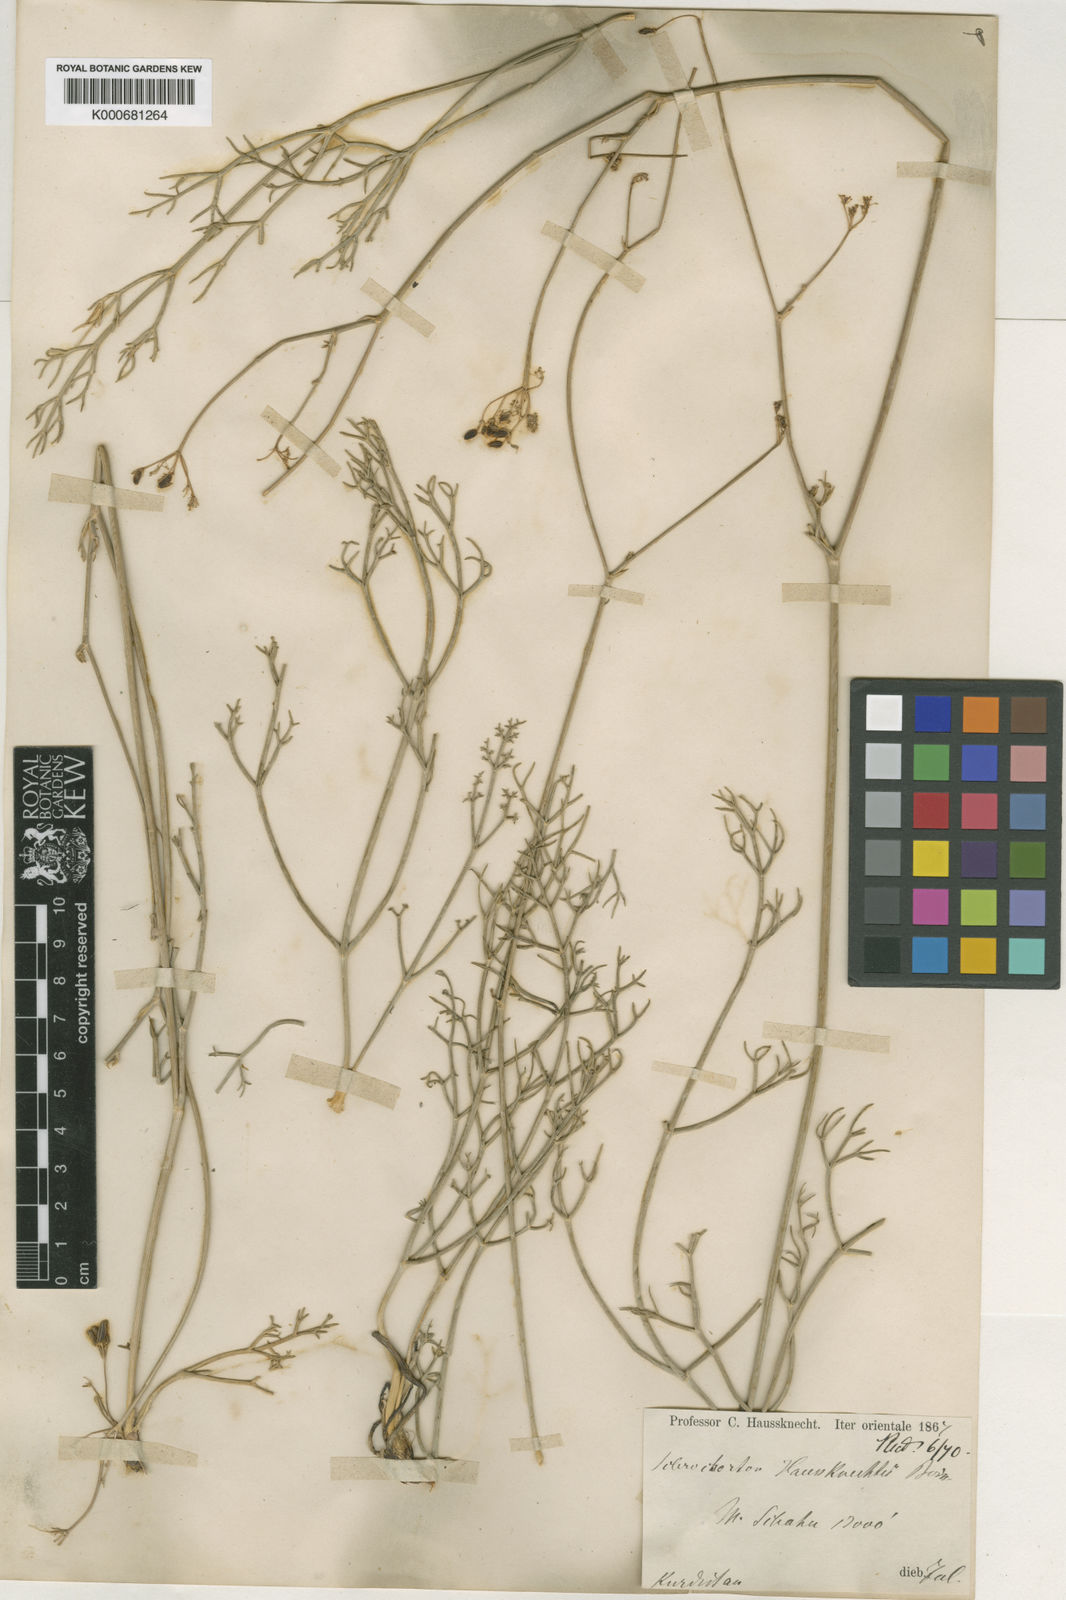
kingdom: Plantae
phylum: Tracheophyta
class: Magnoliopsida
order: Apiales
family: Apiaceae
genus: Sclerochorton
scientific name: Sclerochorton haussknechtii
